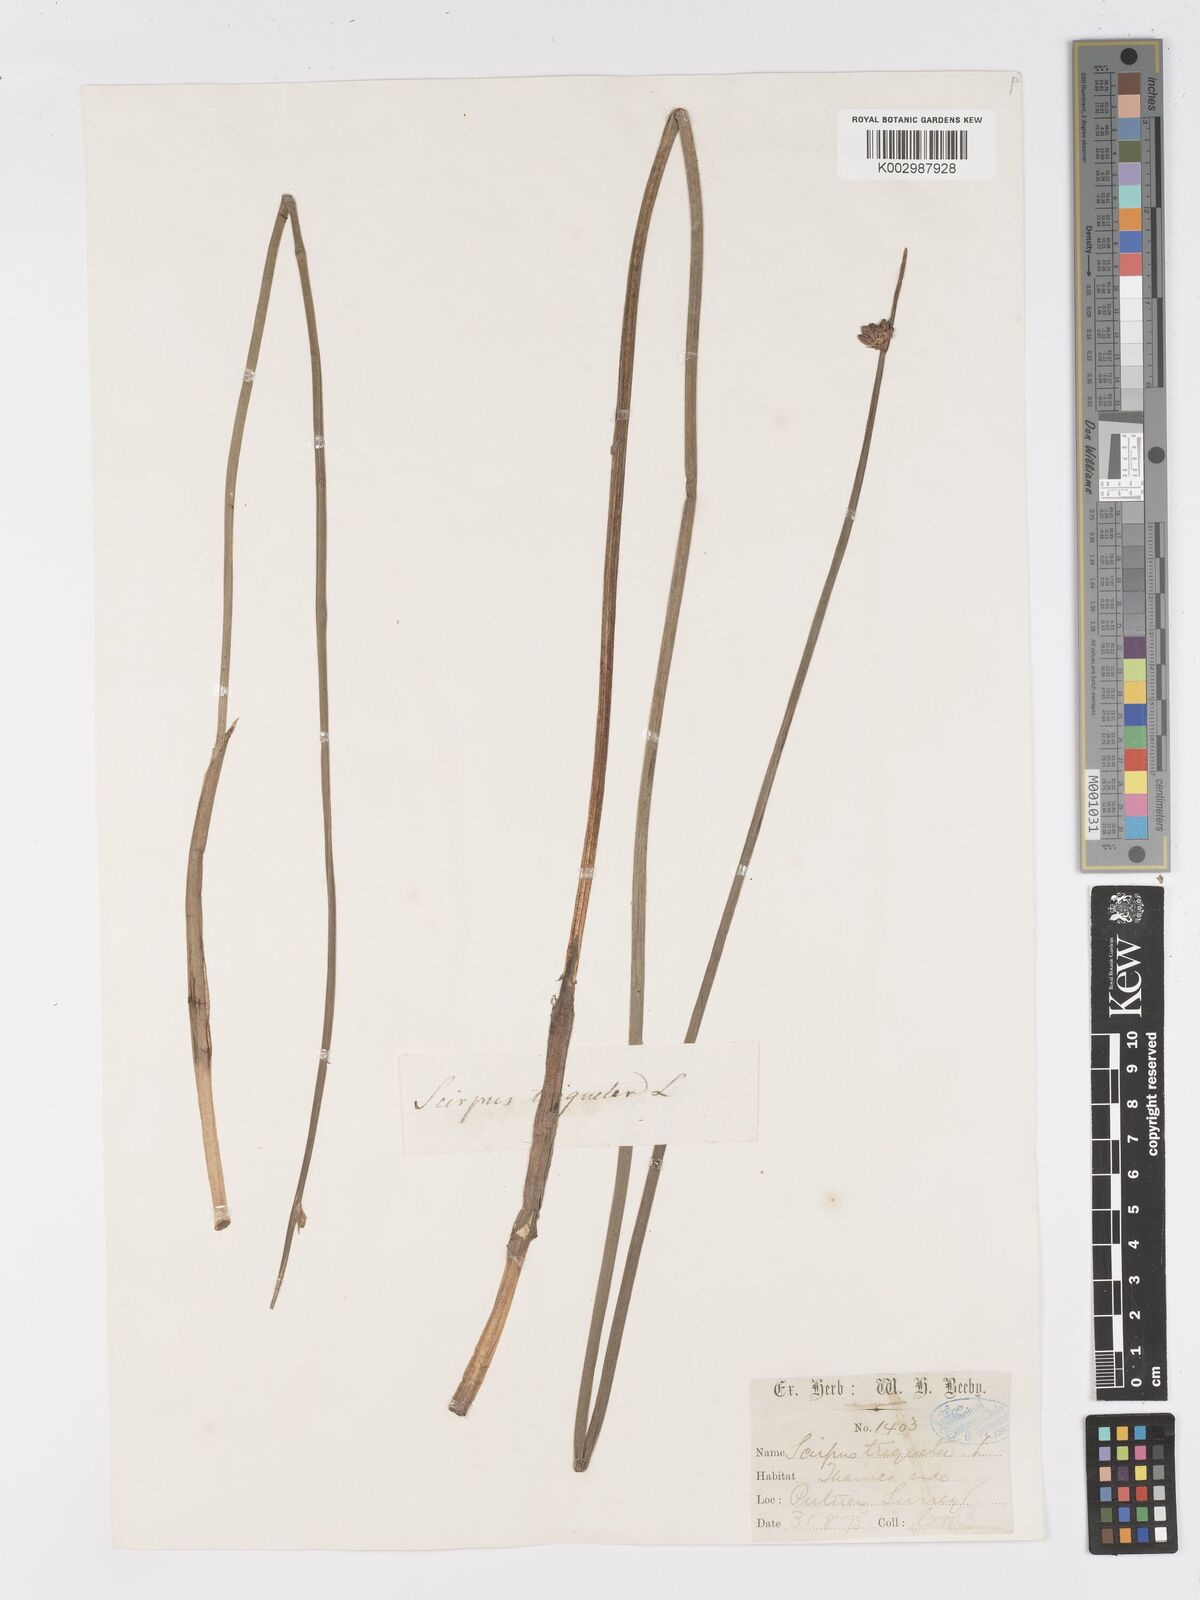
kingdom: Plantae
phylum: Tracheophyta
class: Liliopsida
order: Poales
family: Cyperaceae
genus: Schoenoplectus
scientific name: Schoenoplectus triqueter
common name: Triangular club-rush
